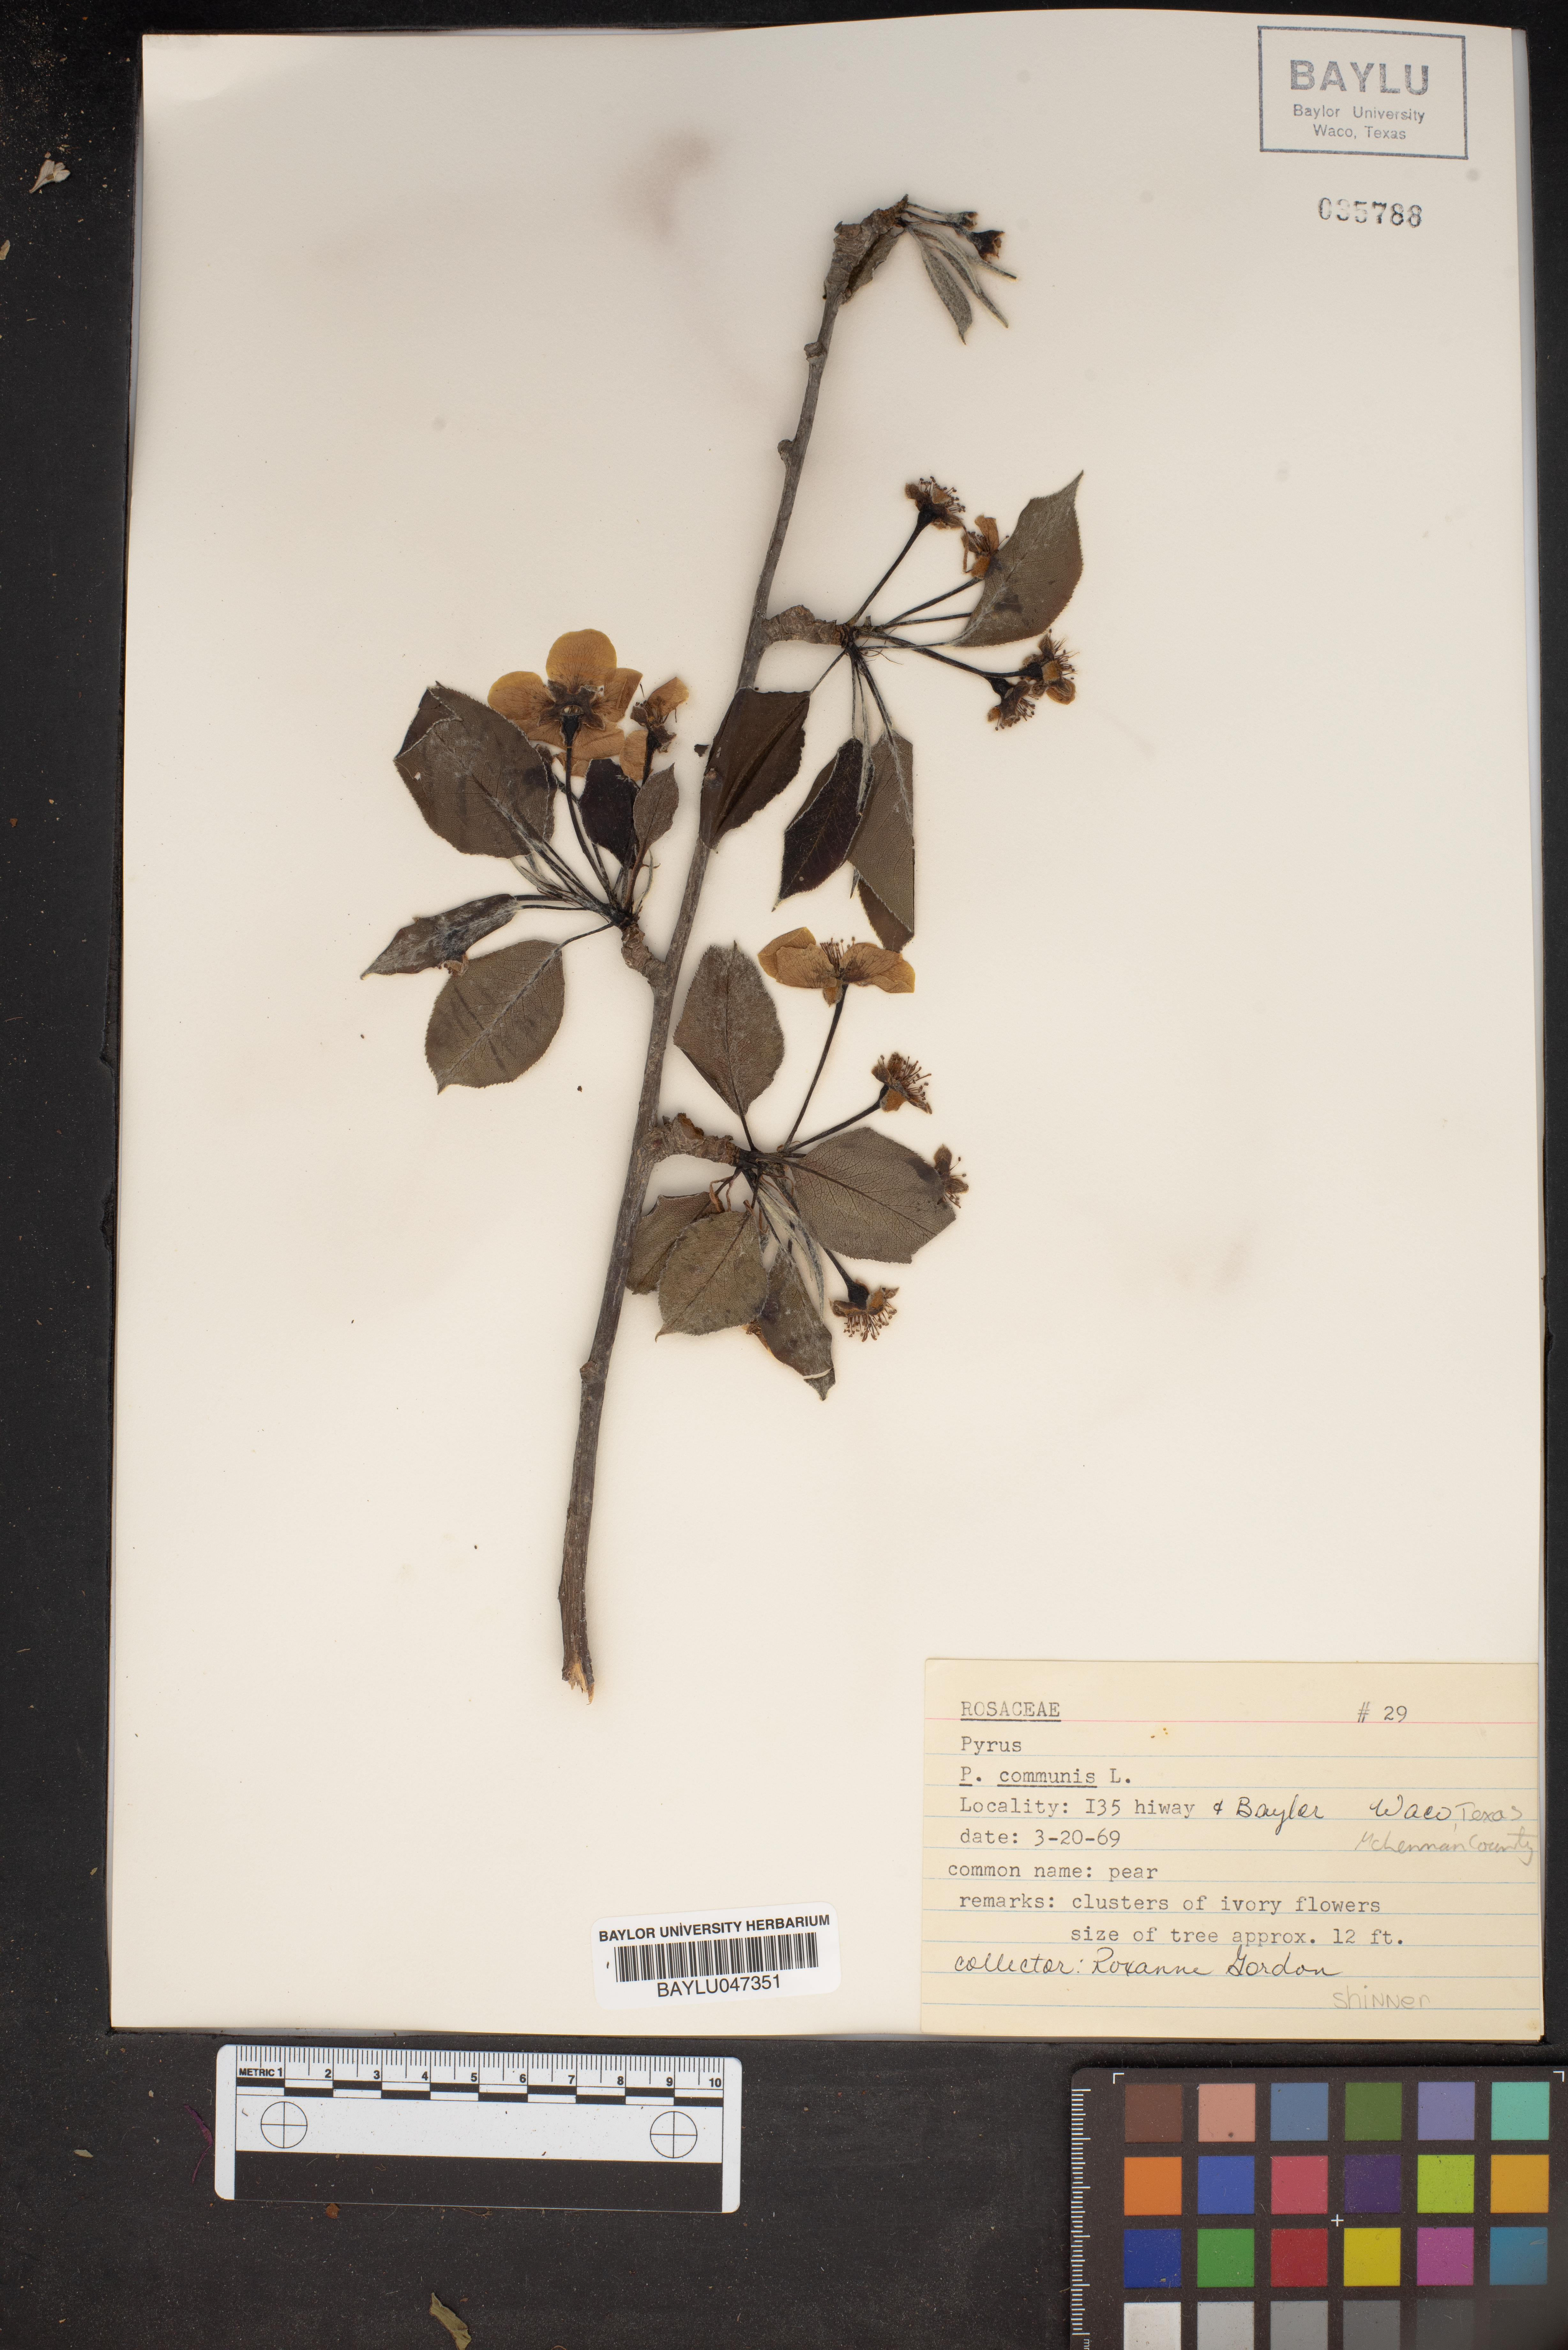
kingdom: Plantae
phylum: Tracheophyta
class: Magnoliopsida
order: Rosales
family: Rosaceae
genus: Pyrus
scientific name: Pyrus communis
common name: Pear
